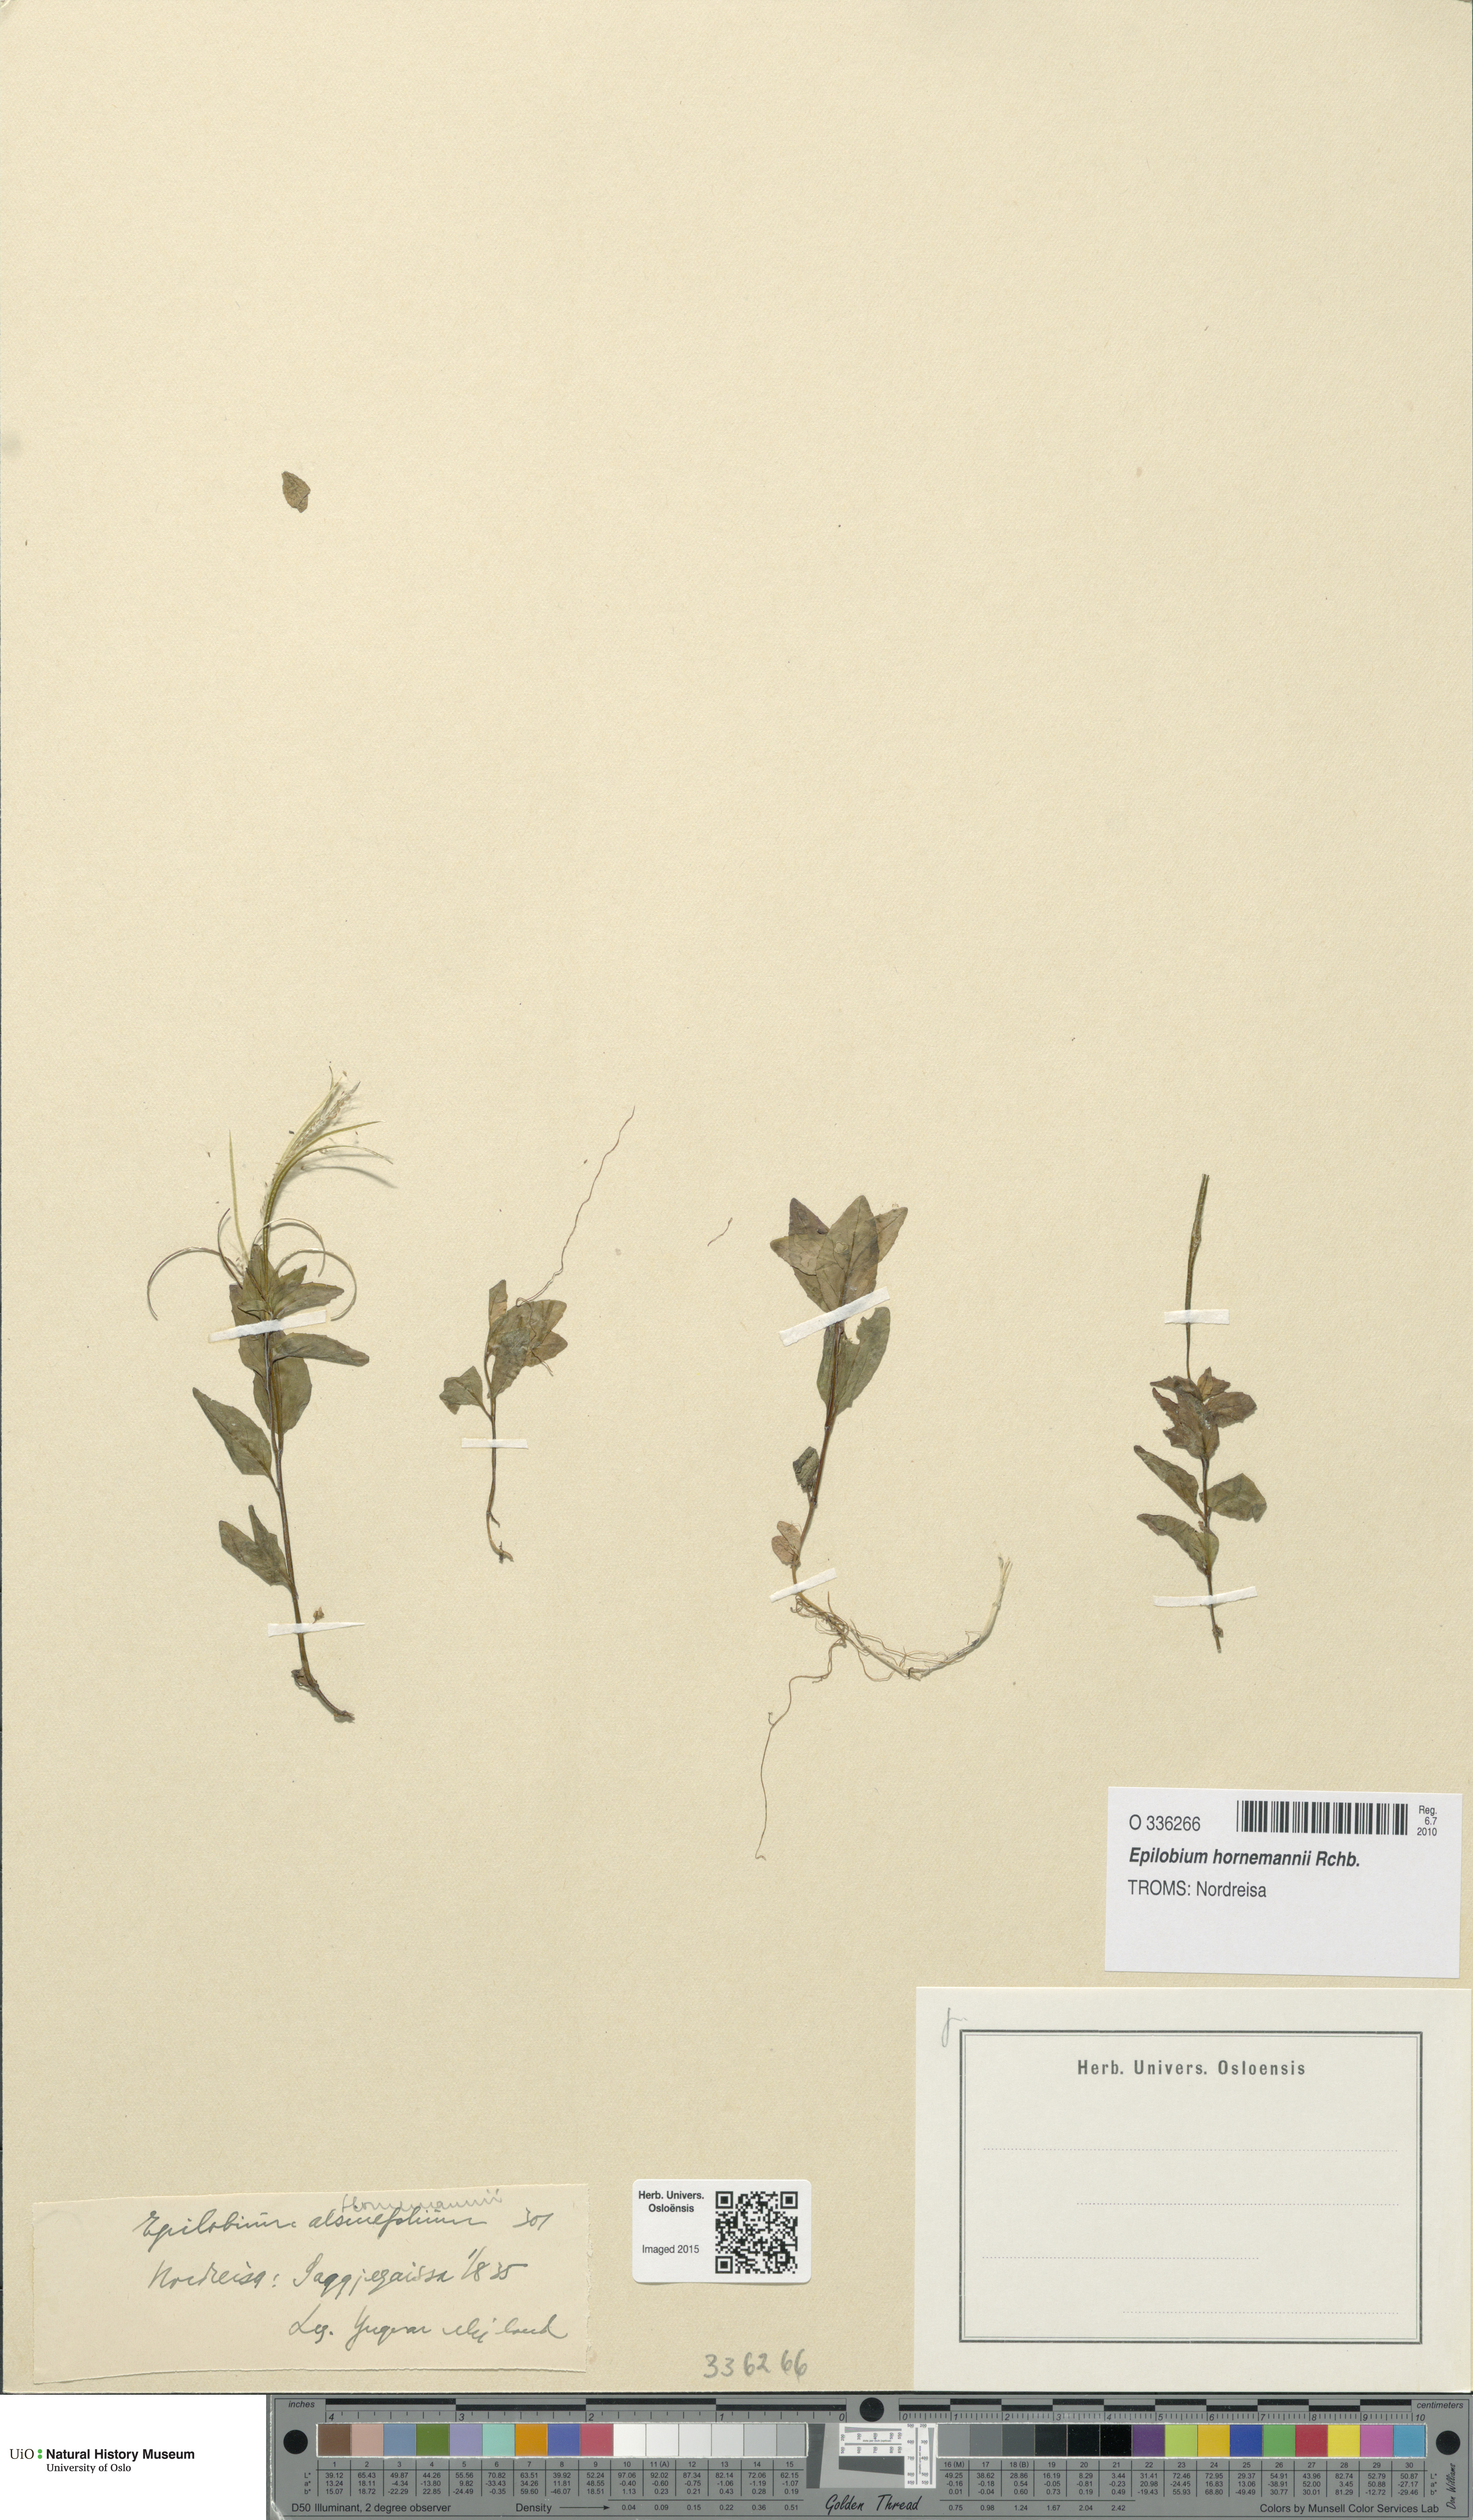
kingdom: Plantae
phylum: Tracheophyta
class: Magnoliopsida
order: Myrtales
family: Onagraceae
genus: Epilobium
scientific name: Epilobium hornemannii
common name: Hornemann's willowherb
